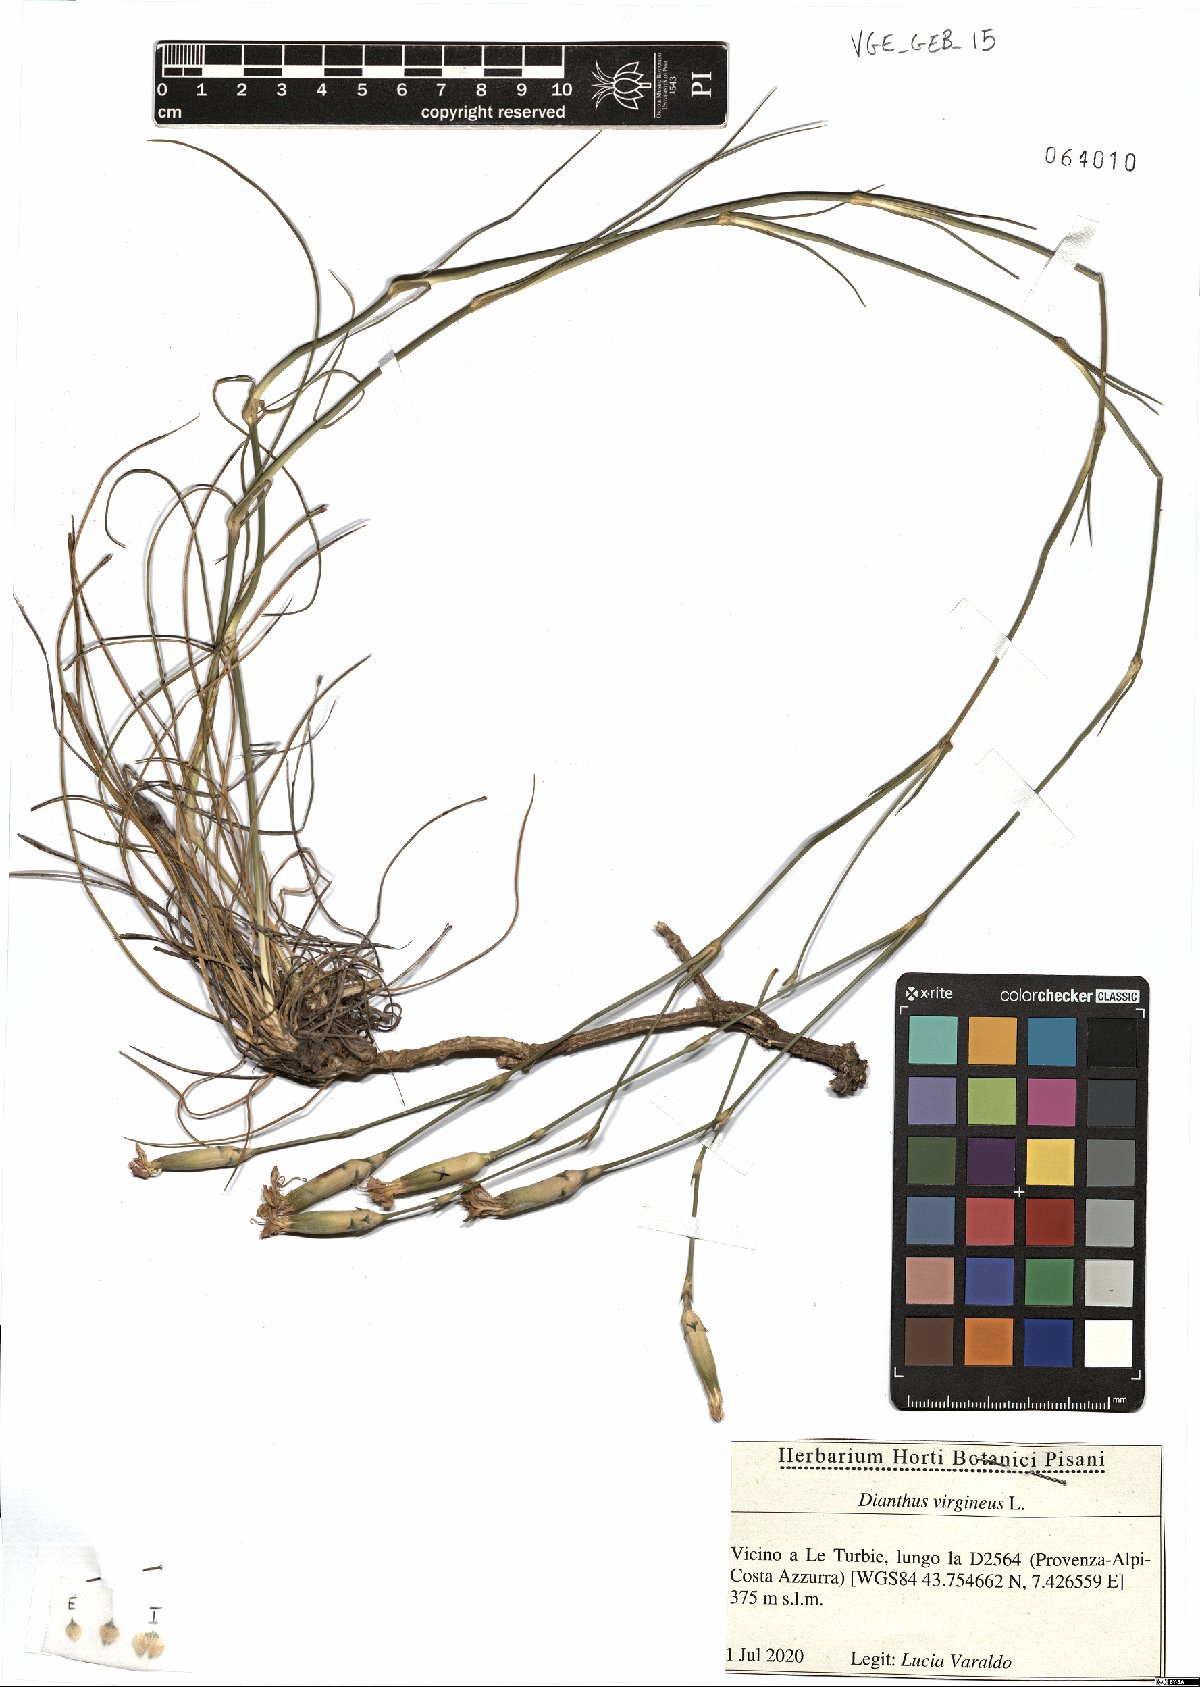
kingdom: Plantae
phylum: Tracheophyta
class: Magnoliopsida
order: Caryophyllales
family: Caryophyllaceae
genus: Dianthus
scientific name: Dianthus virgineus
